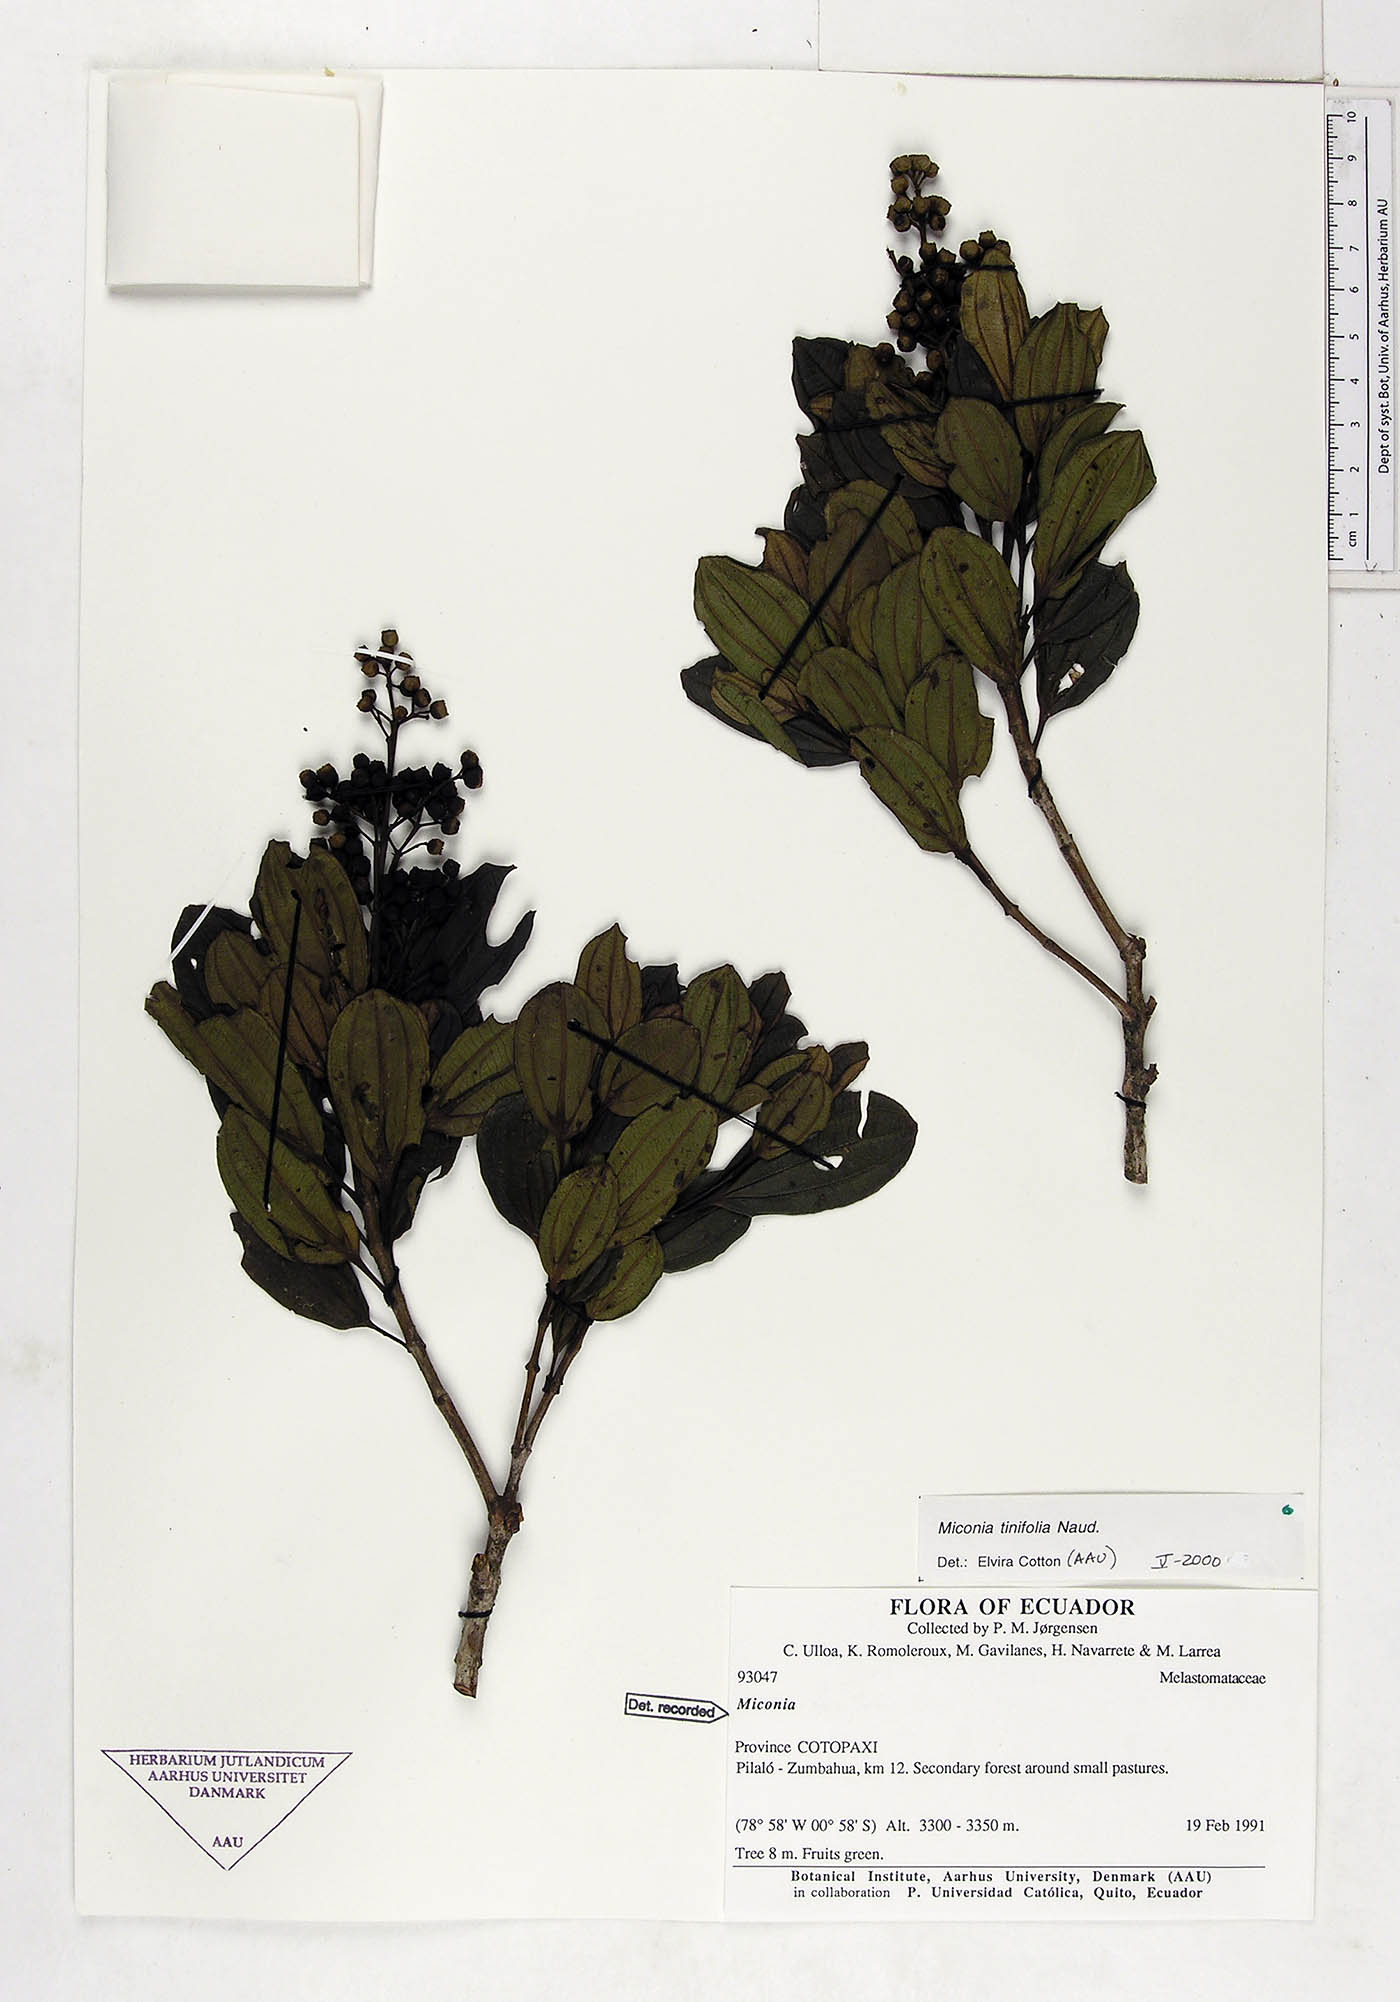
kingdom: Plantae
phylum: Tracheophyta
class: Magnoliopsida
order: Myrtales
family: Melastomataceae
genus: Miconia
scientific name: Miconia tinifolia
